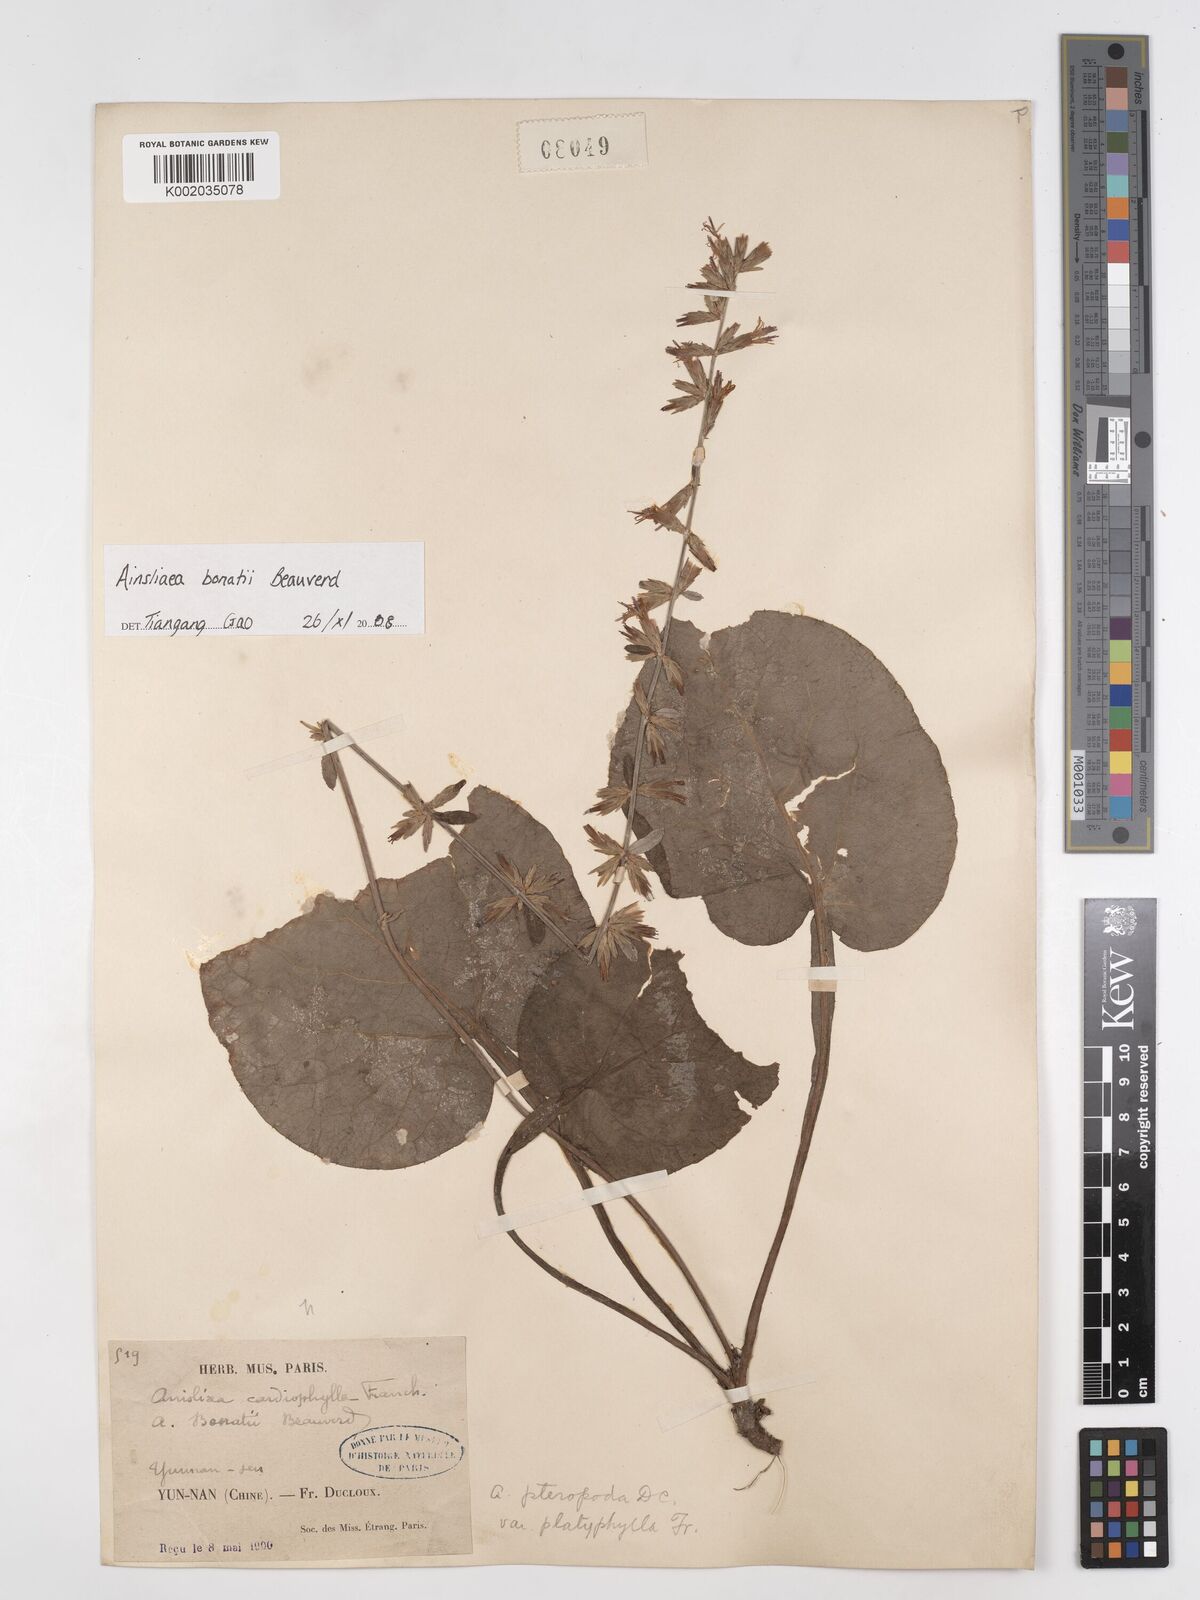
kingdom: Plantae
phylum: Tracheophyta
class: Magnoliopsida
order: Asterales
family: Asteraceae
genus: Ainsliaea
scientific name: Ainsliaea bonatii
